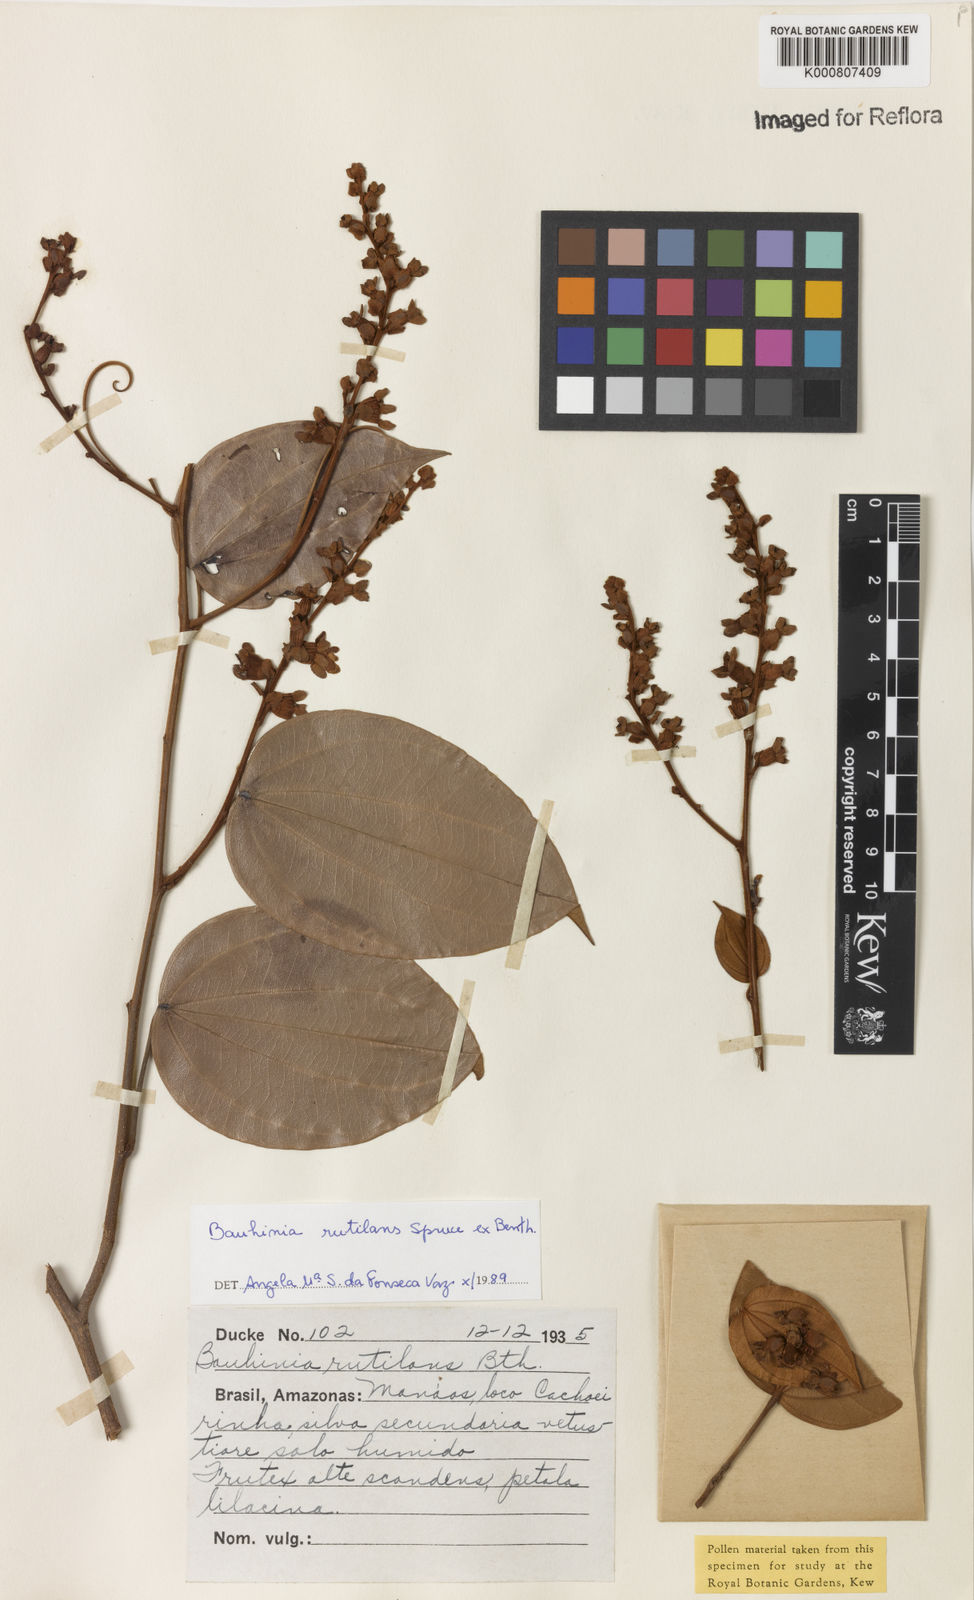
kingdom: Plantae
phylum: Tracheophyta
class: Magnoliopsida
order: Fabales
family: Fabaceae
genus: Schnella
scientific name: Schnella rutilans
